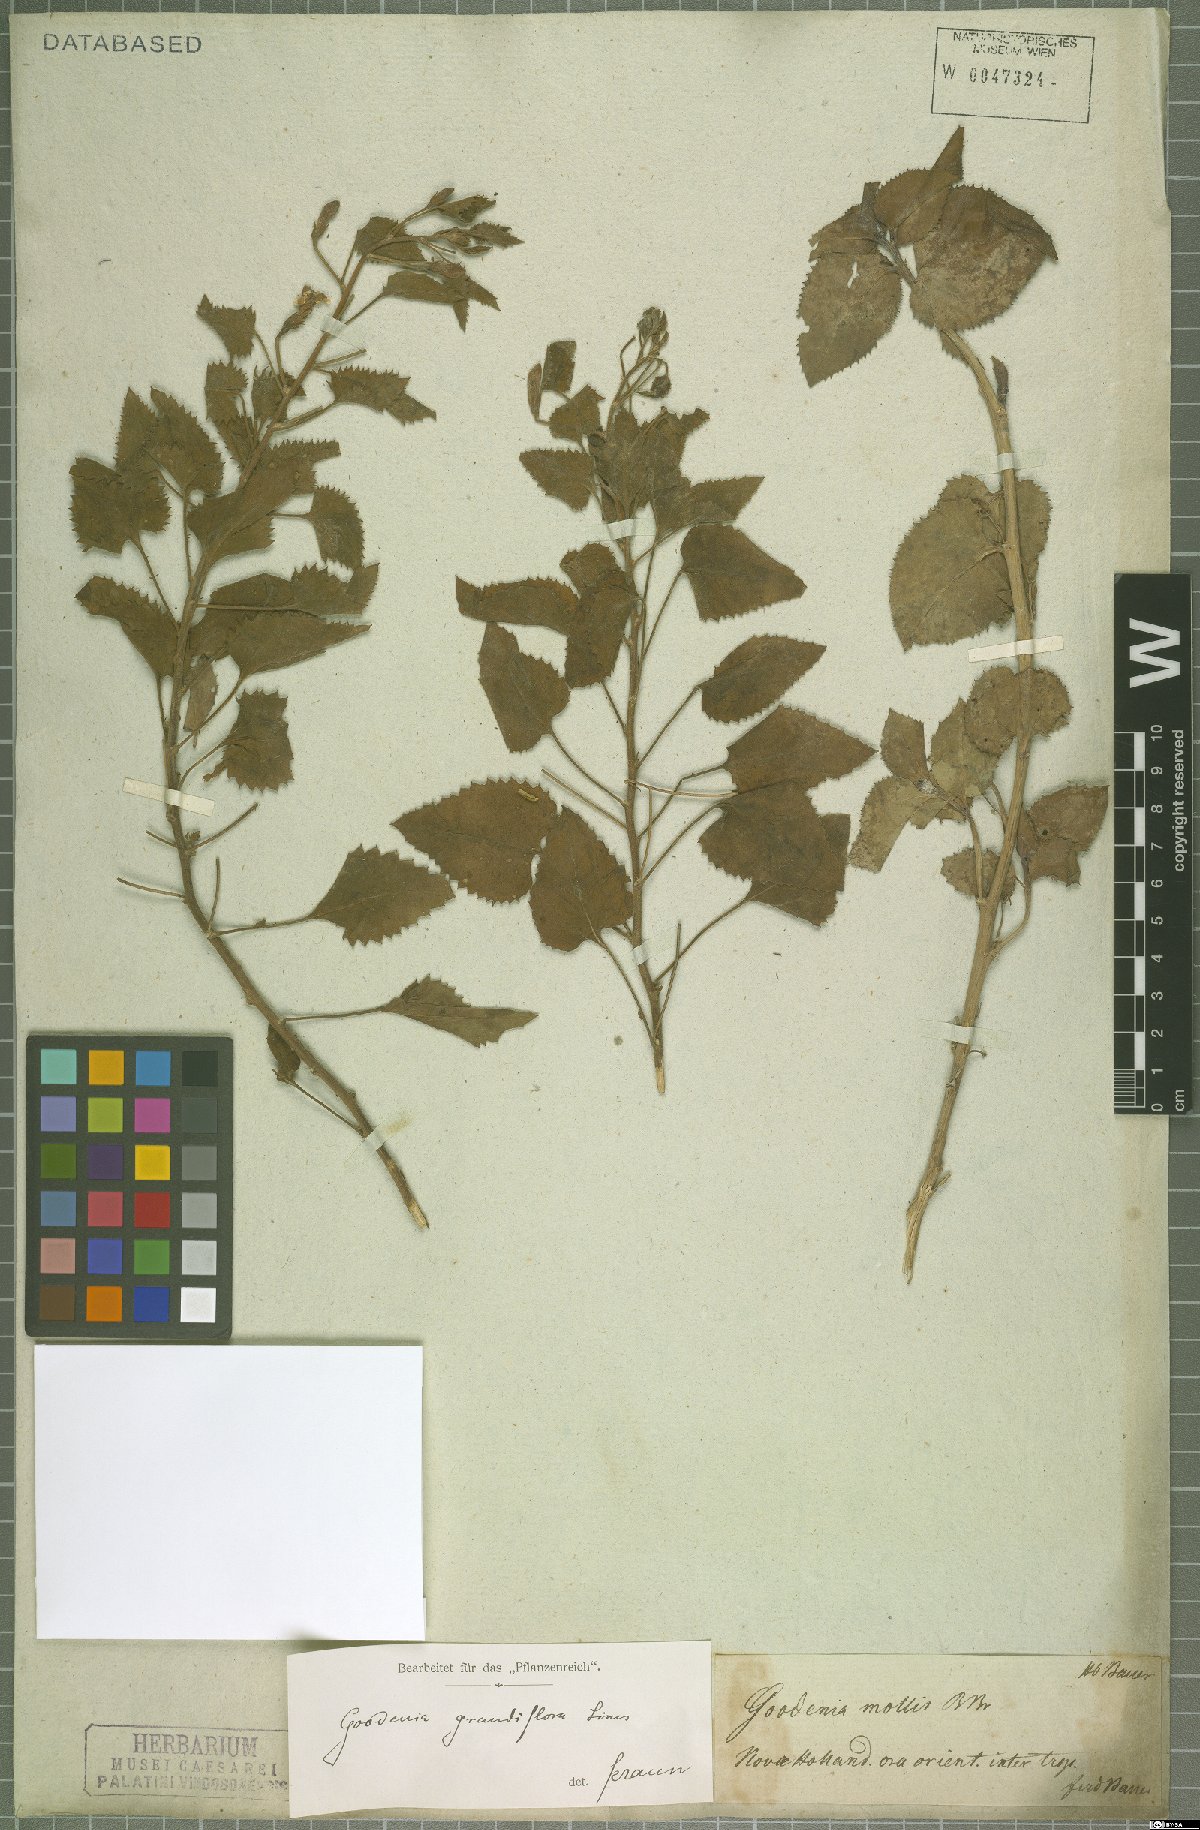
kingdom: Plantae
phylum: Tracheophyta
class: Magnoliopsida
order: Asterales
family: Goodeniaceae
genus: Goodenia
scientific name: Goodenia grandiflora
